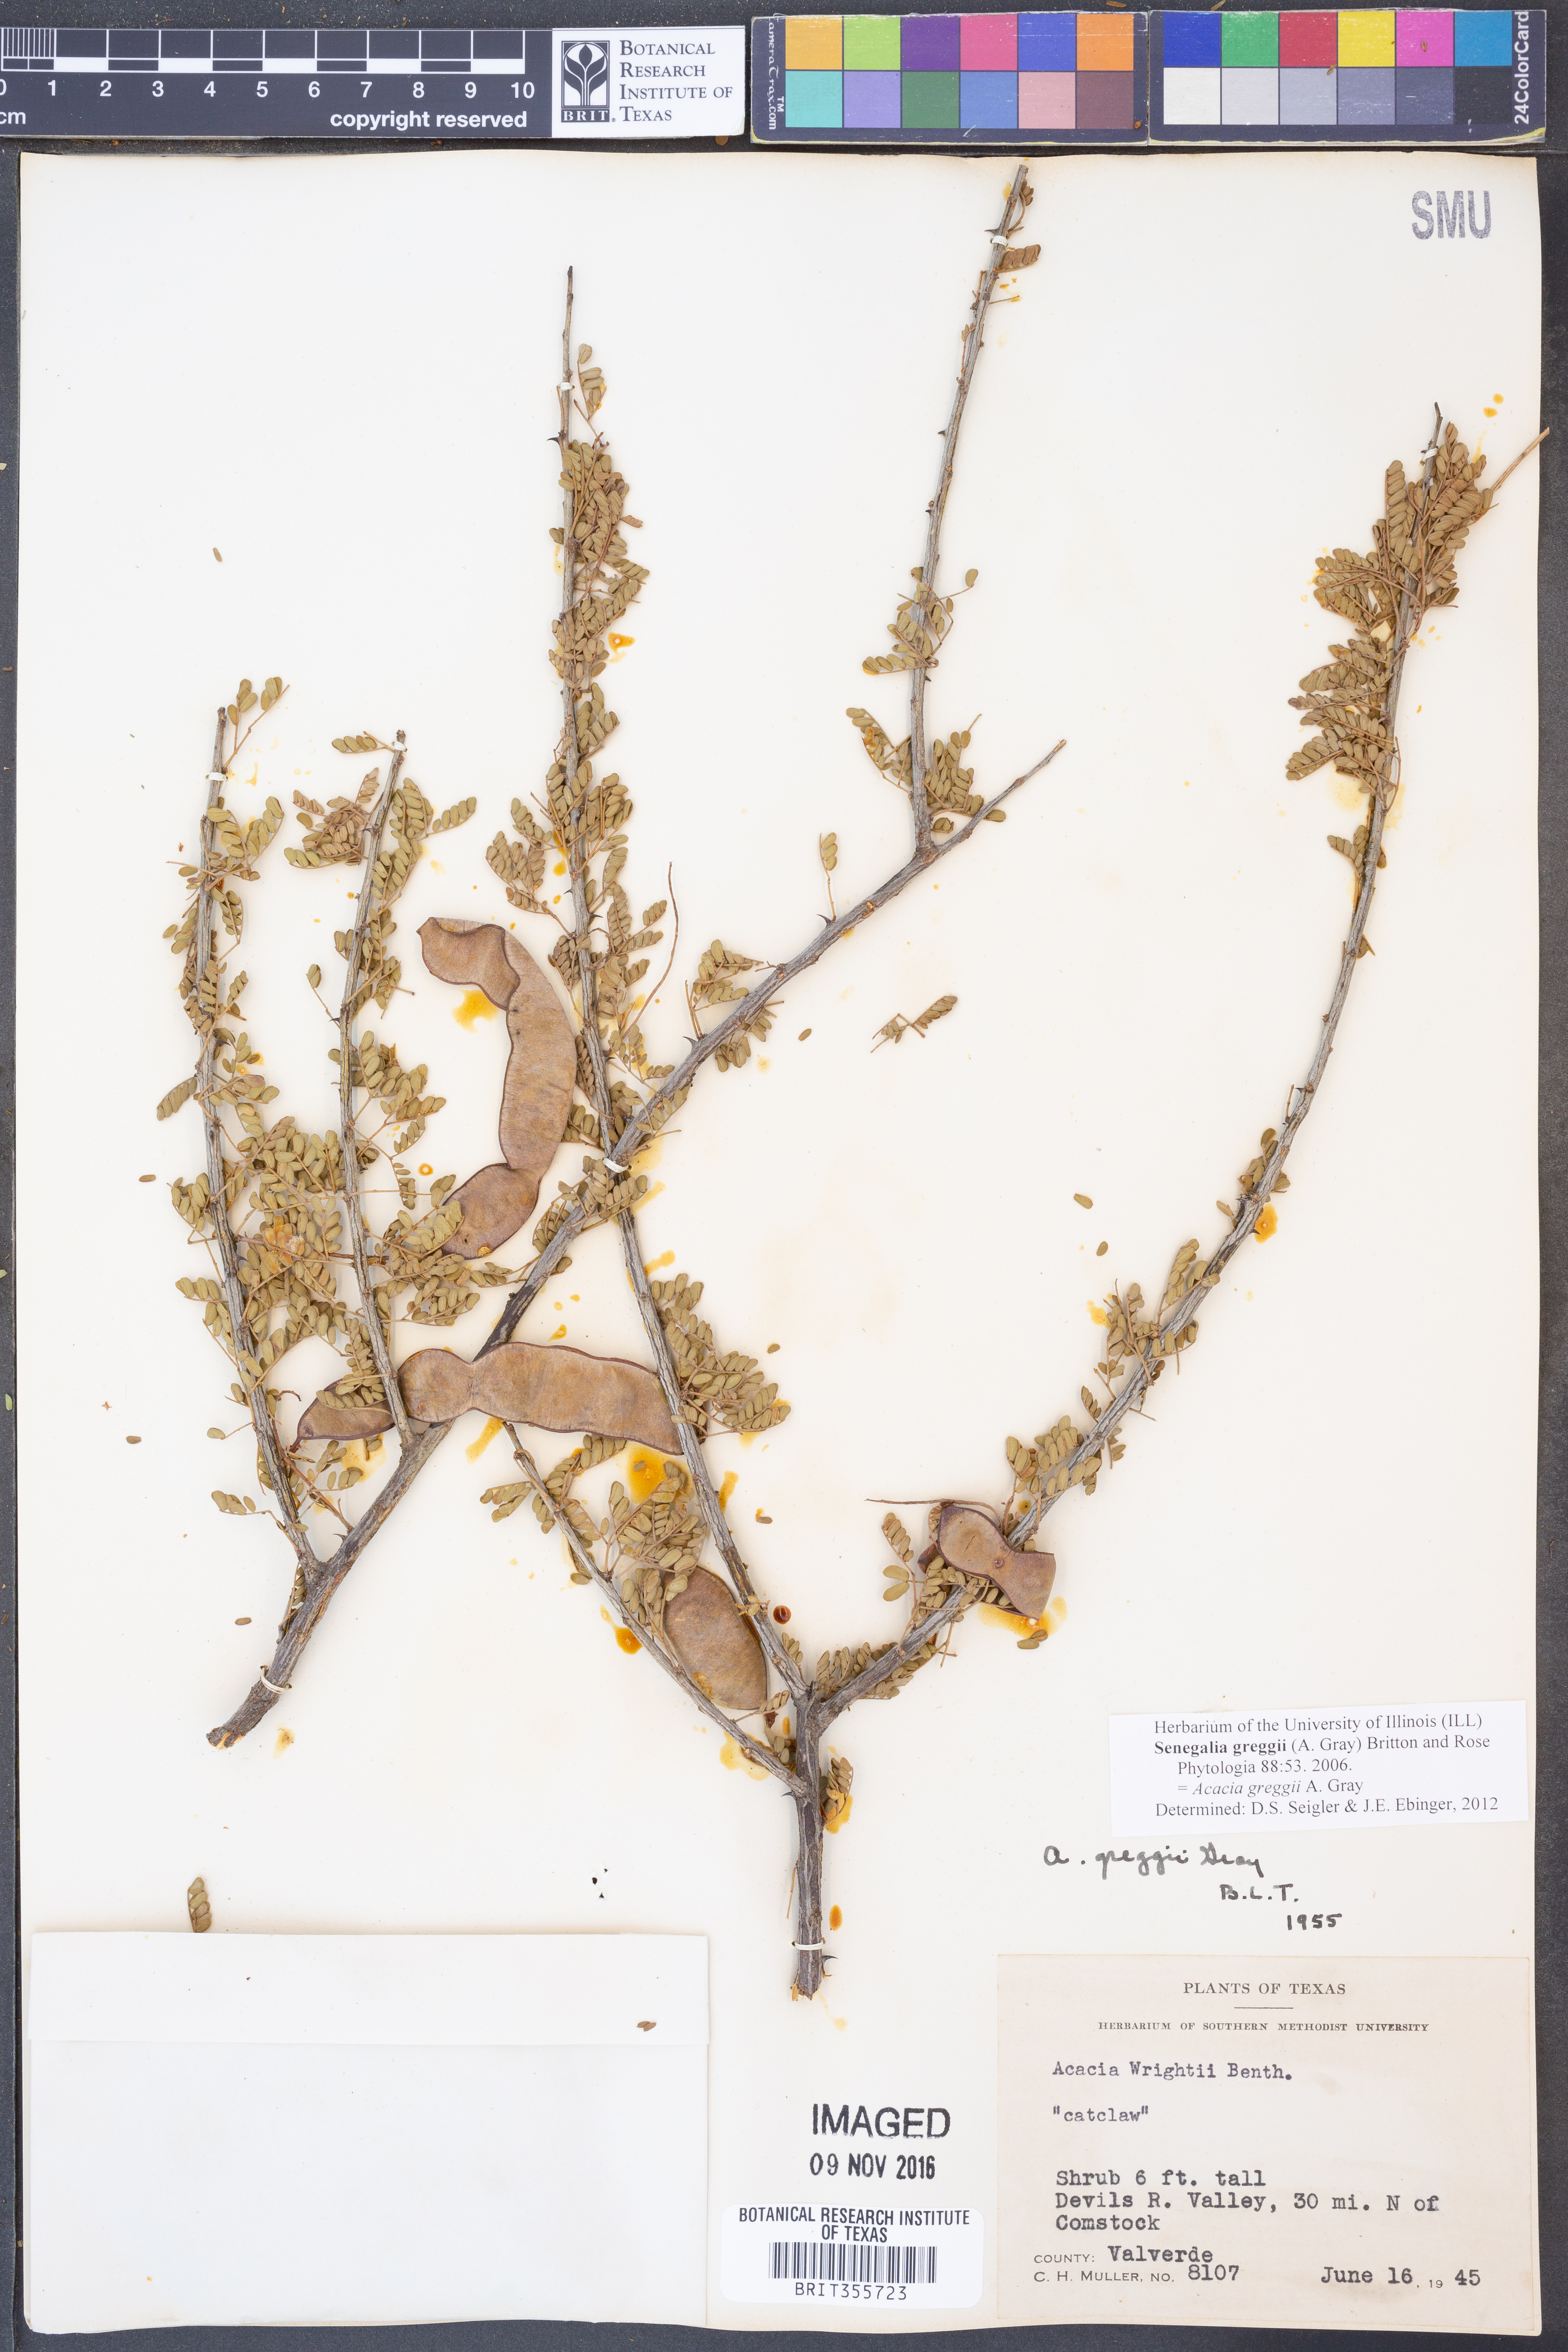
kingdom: Plantae
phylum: Tracheophyta
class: Magnoliopsida
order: Fabales
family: Fabaceae
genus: Senegalia
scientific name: Senegalia greggii
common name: Texas-mimosa
